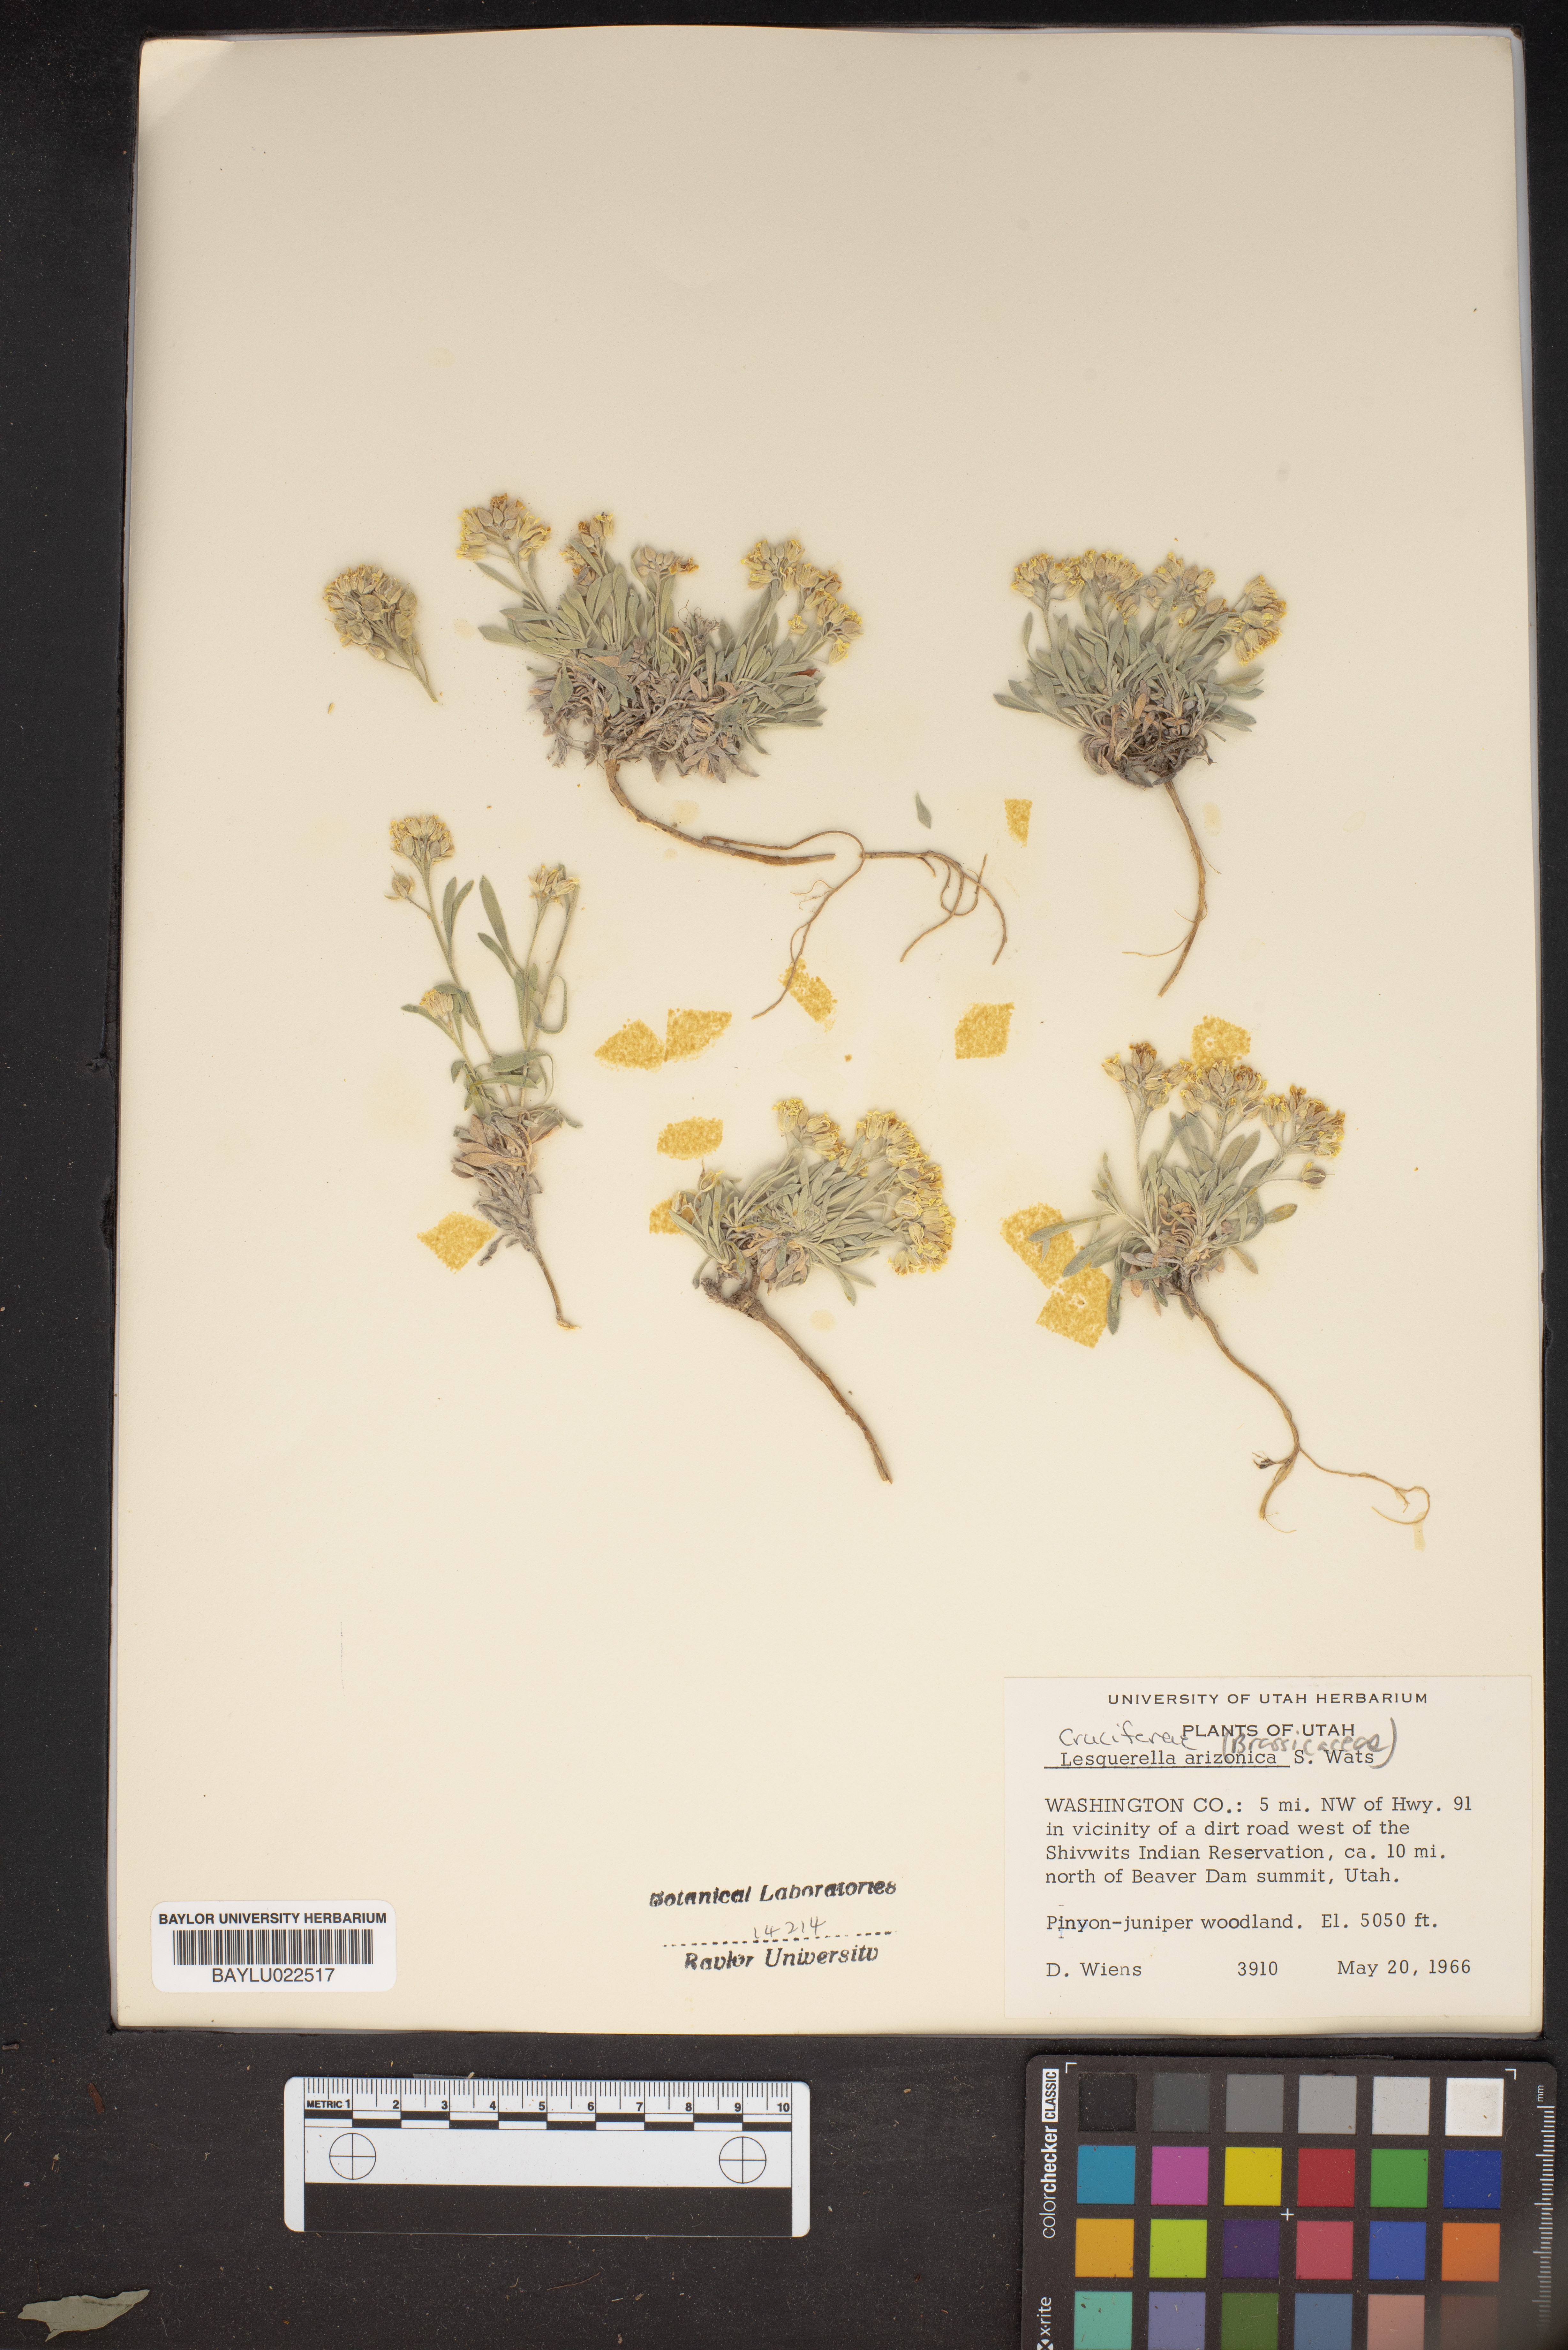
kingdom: Plantae
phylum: Tracheophyta
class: Magnoliopsida
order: Brassicales
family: Brassicaceae
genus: Physaria
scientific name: Physaria arizonica
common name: Arizona bladderpod
